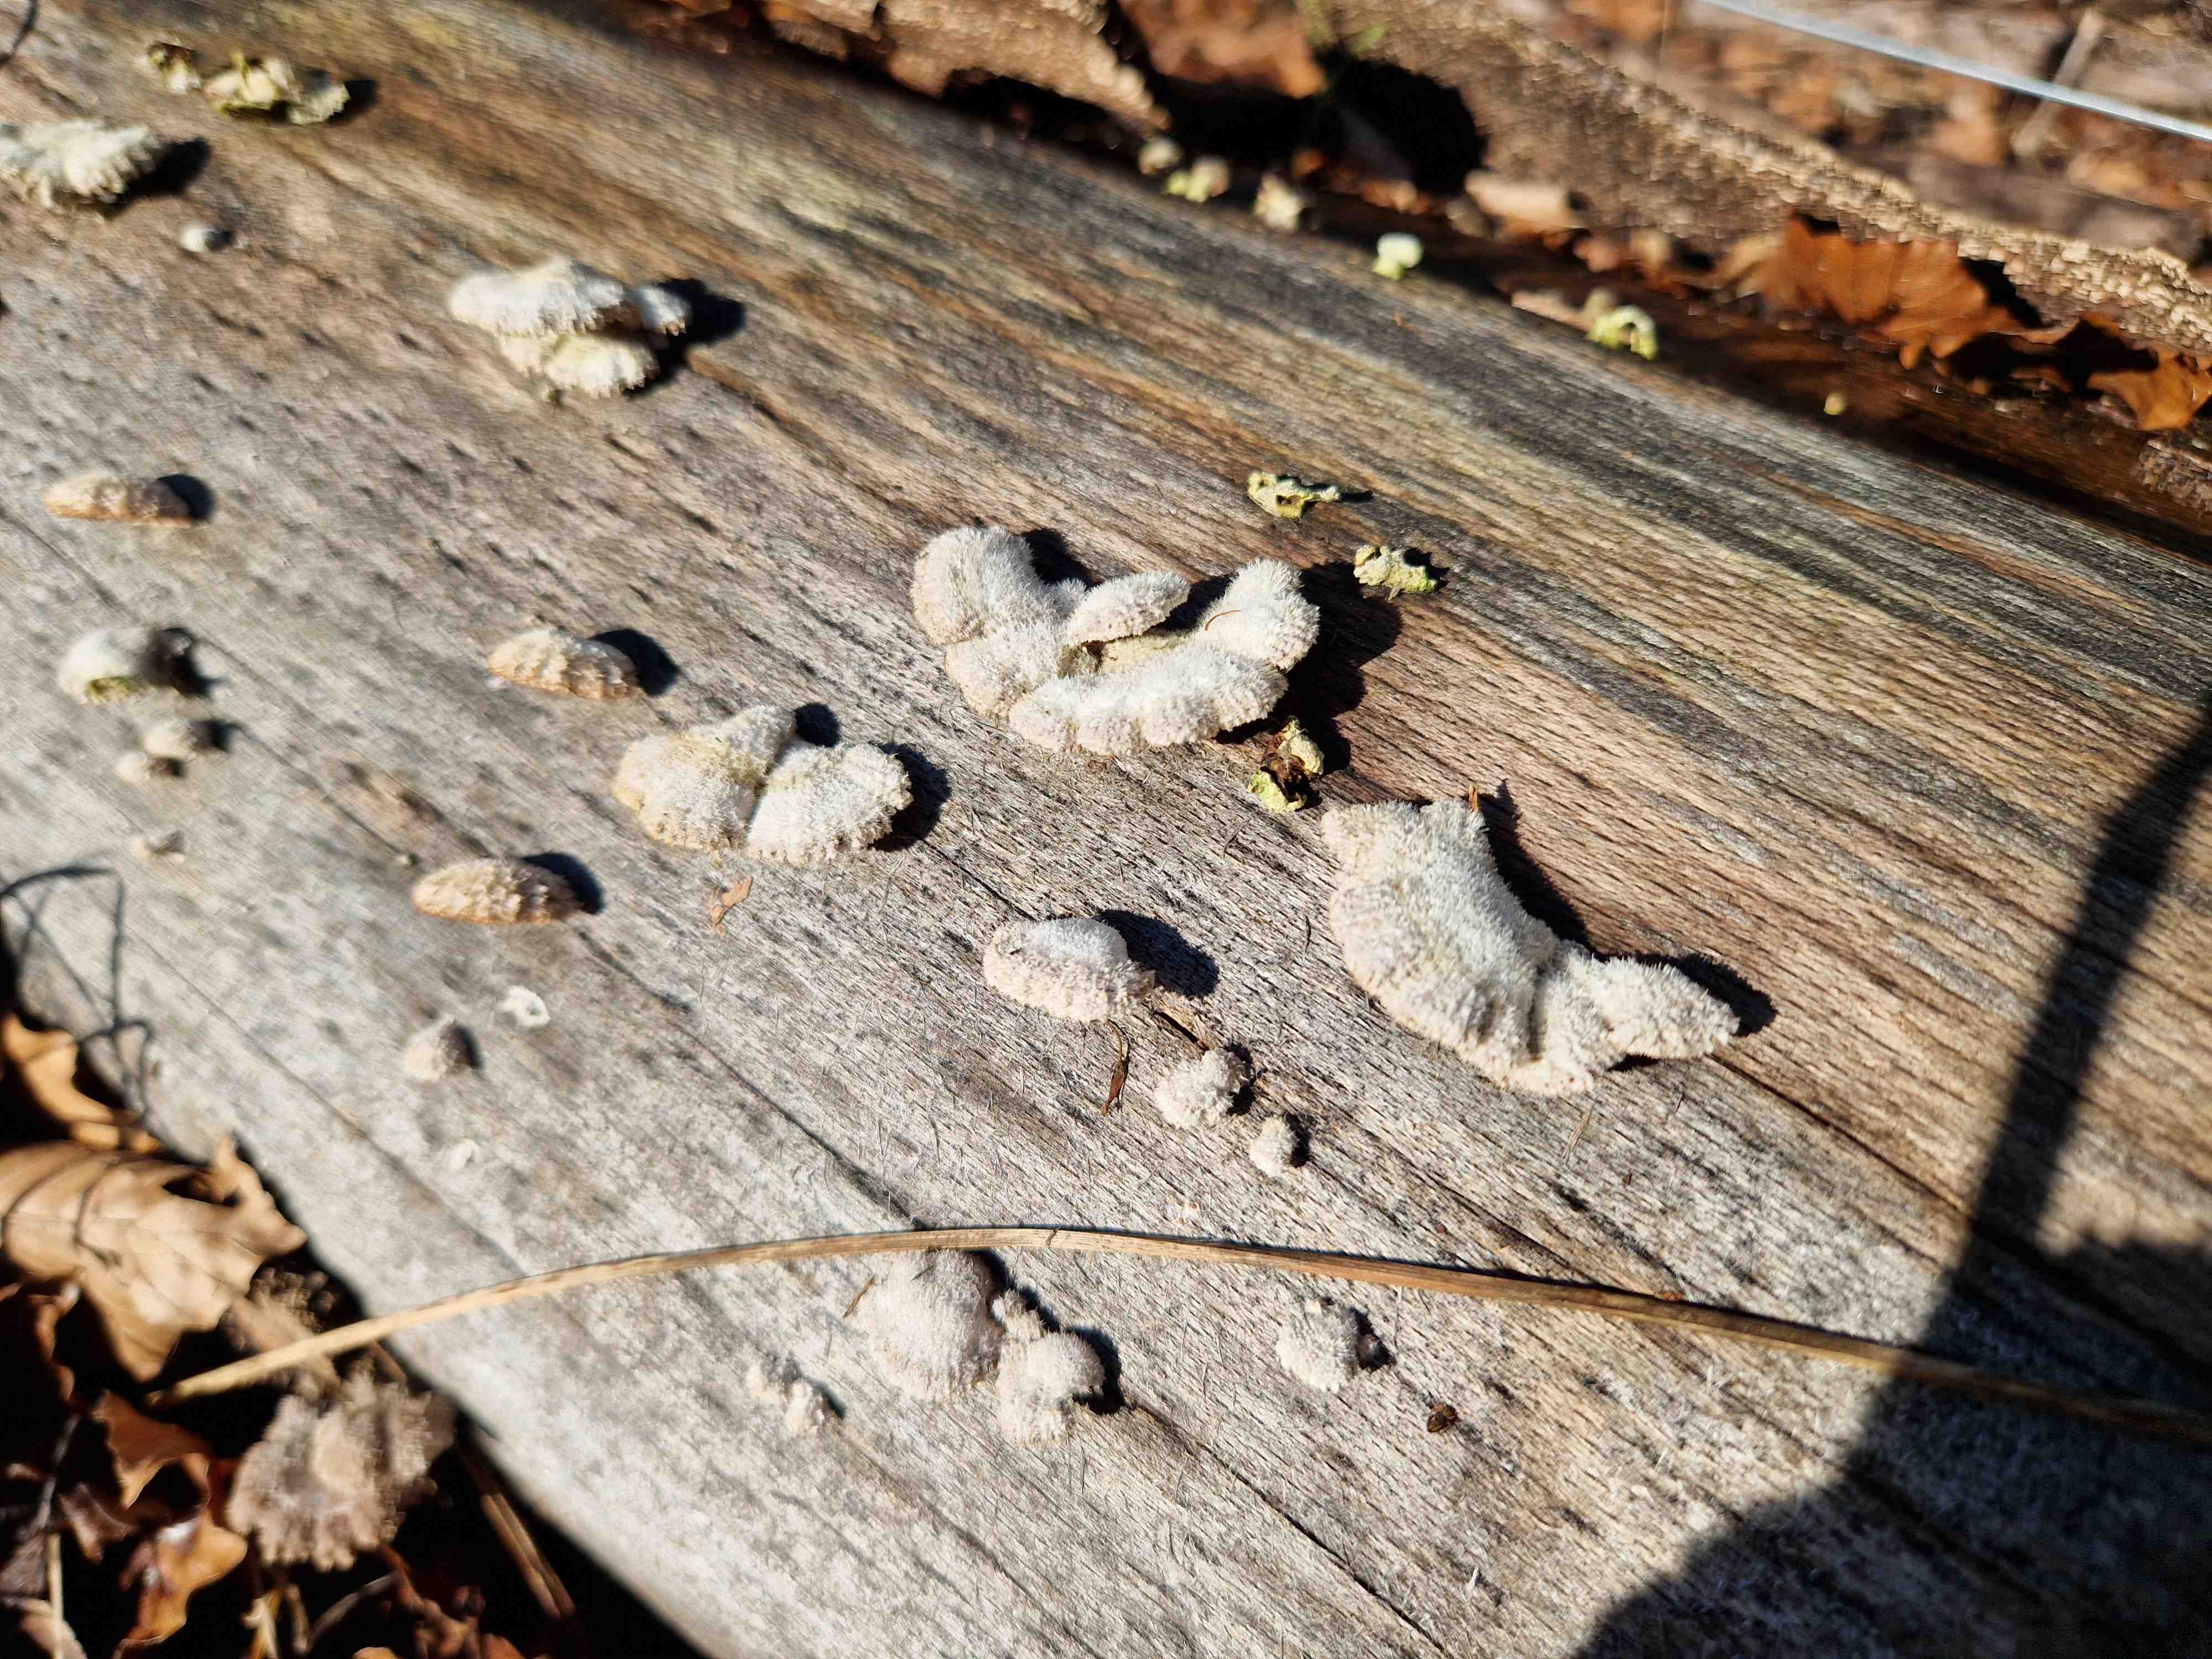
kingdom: Fungi
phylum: Basidiomycota
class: Agaricomycetes
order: Agaricales
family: Schizophyllaceae
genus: Schizophyllum
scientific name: Schizophyllum commune
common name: kløvblad
